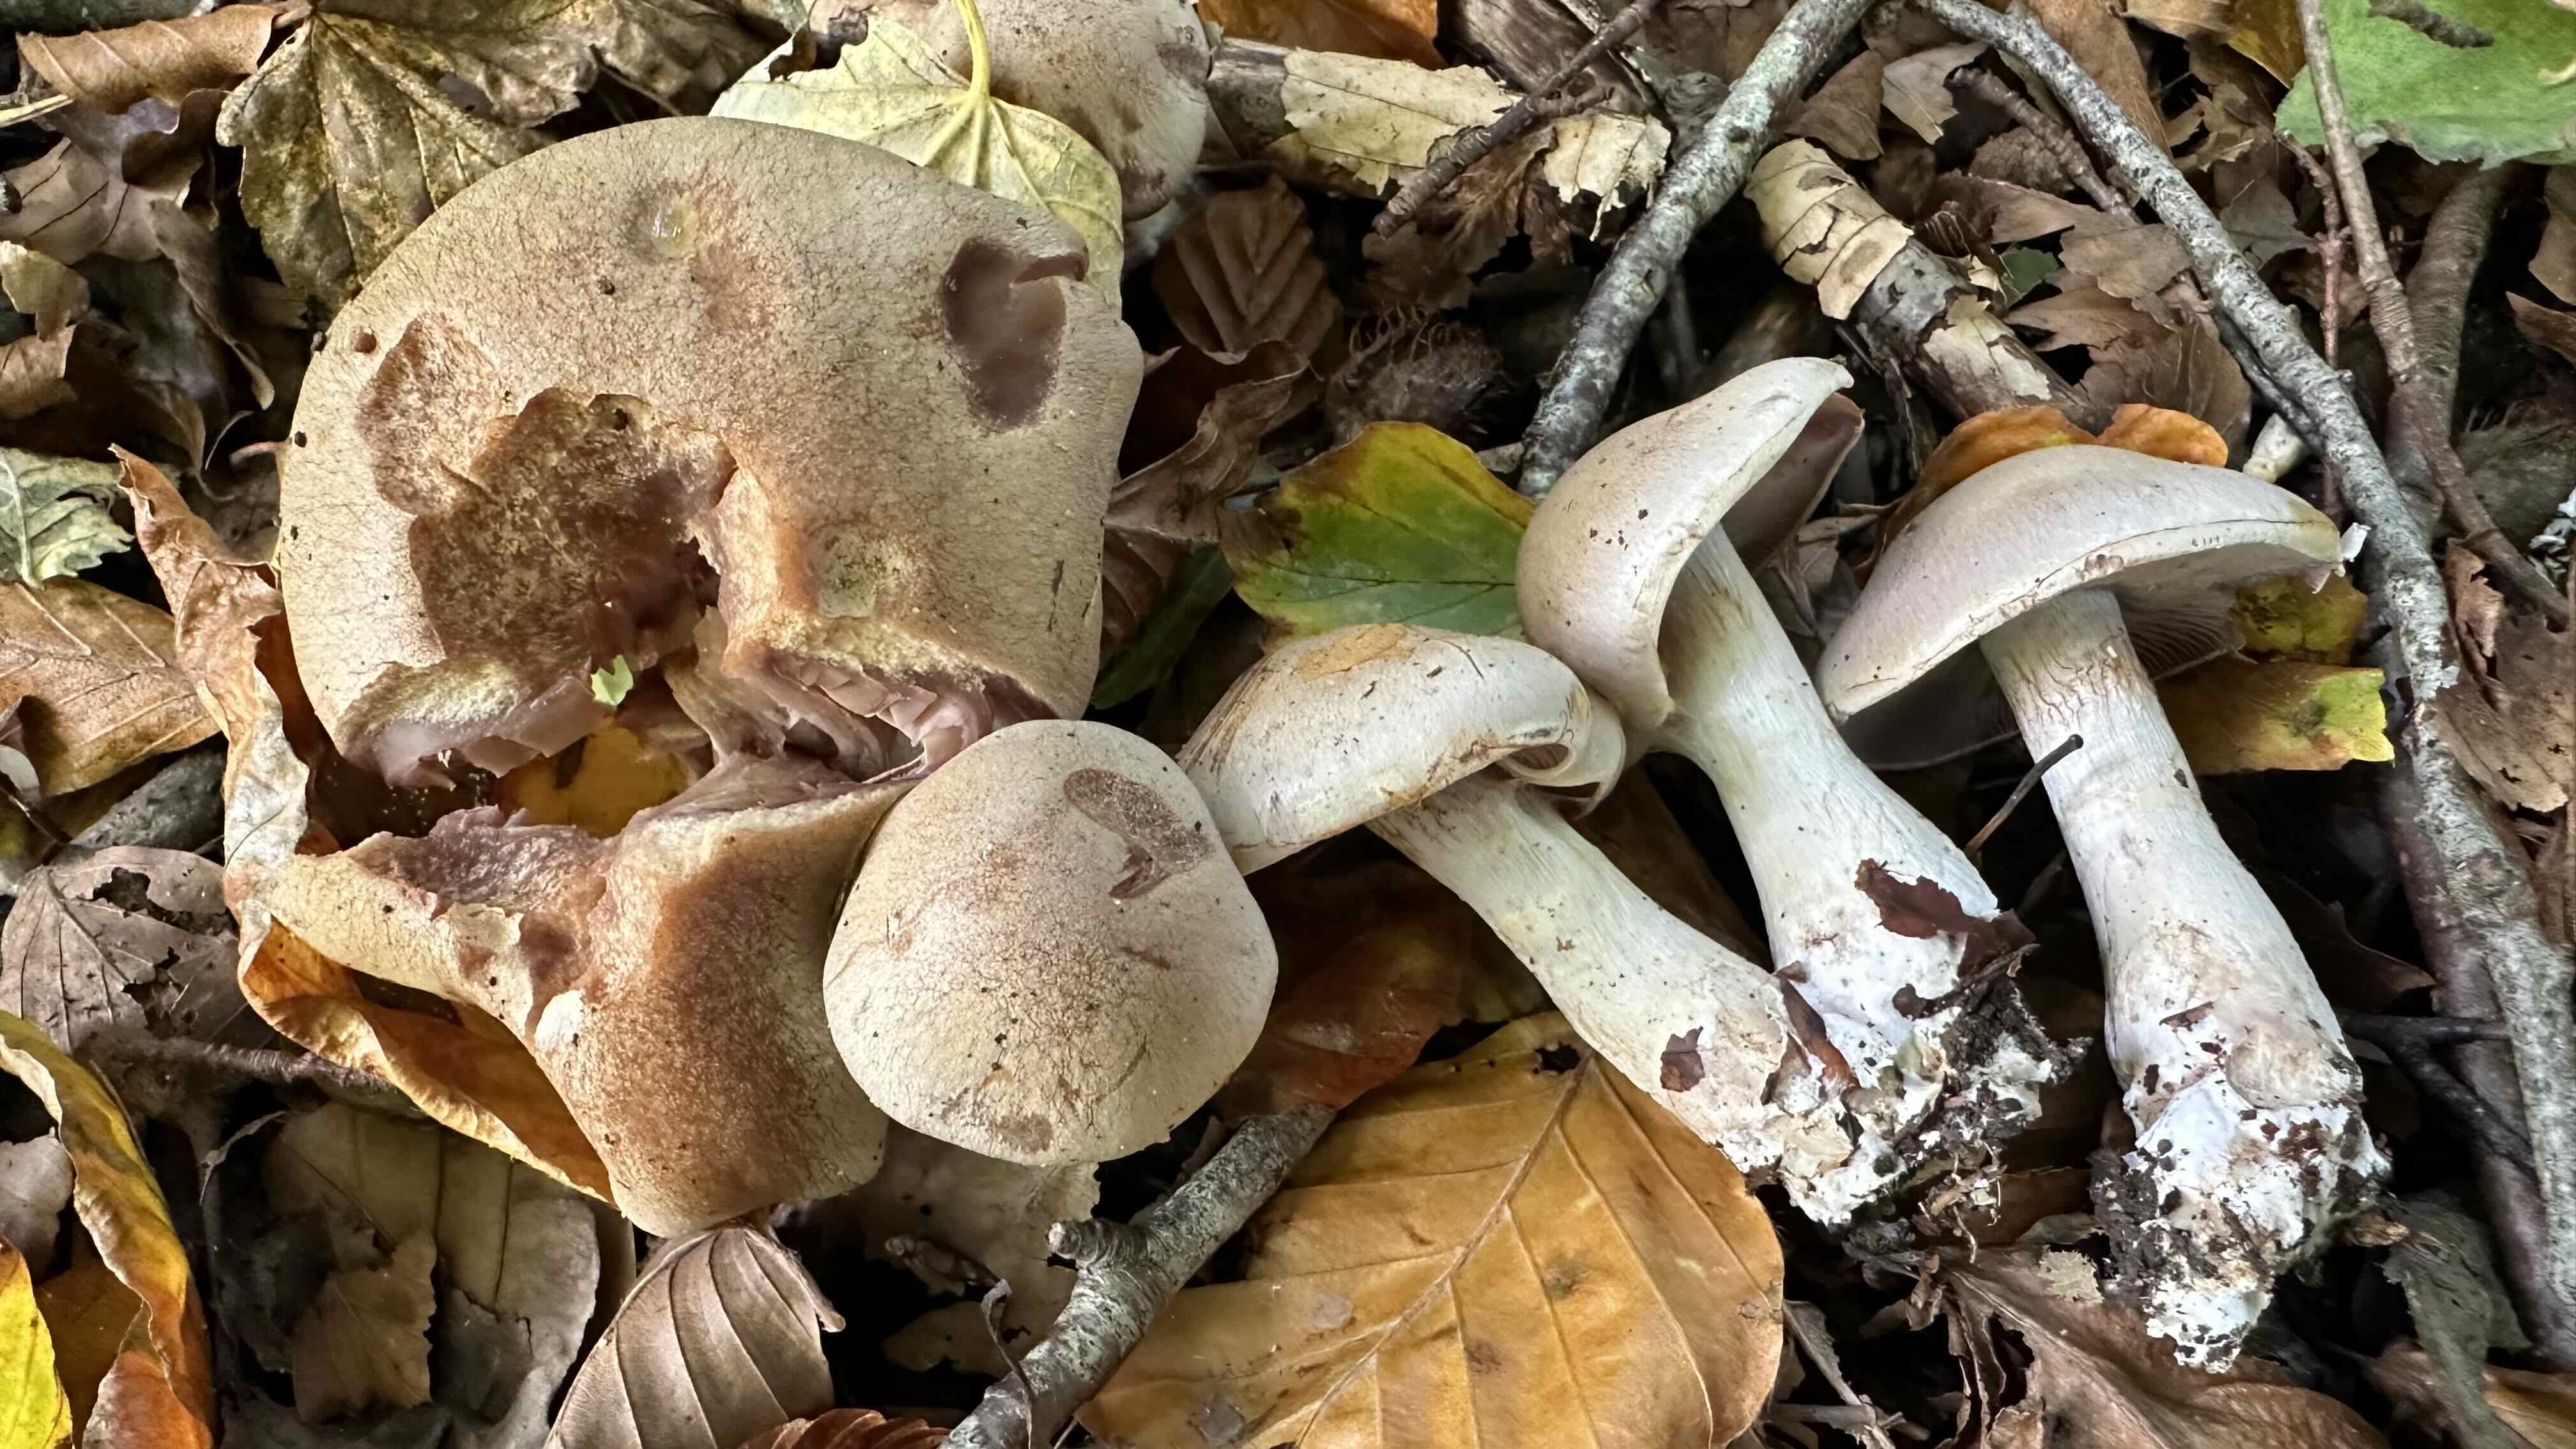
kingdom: Fungi
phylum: Basidiomycota
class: Agaricomycetes
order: Agaricales
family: Cortinariaceae
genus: Cortinarius
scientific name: Cortinarius turgidus
